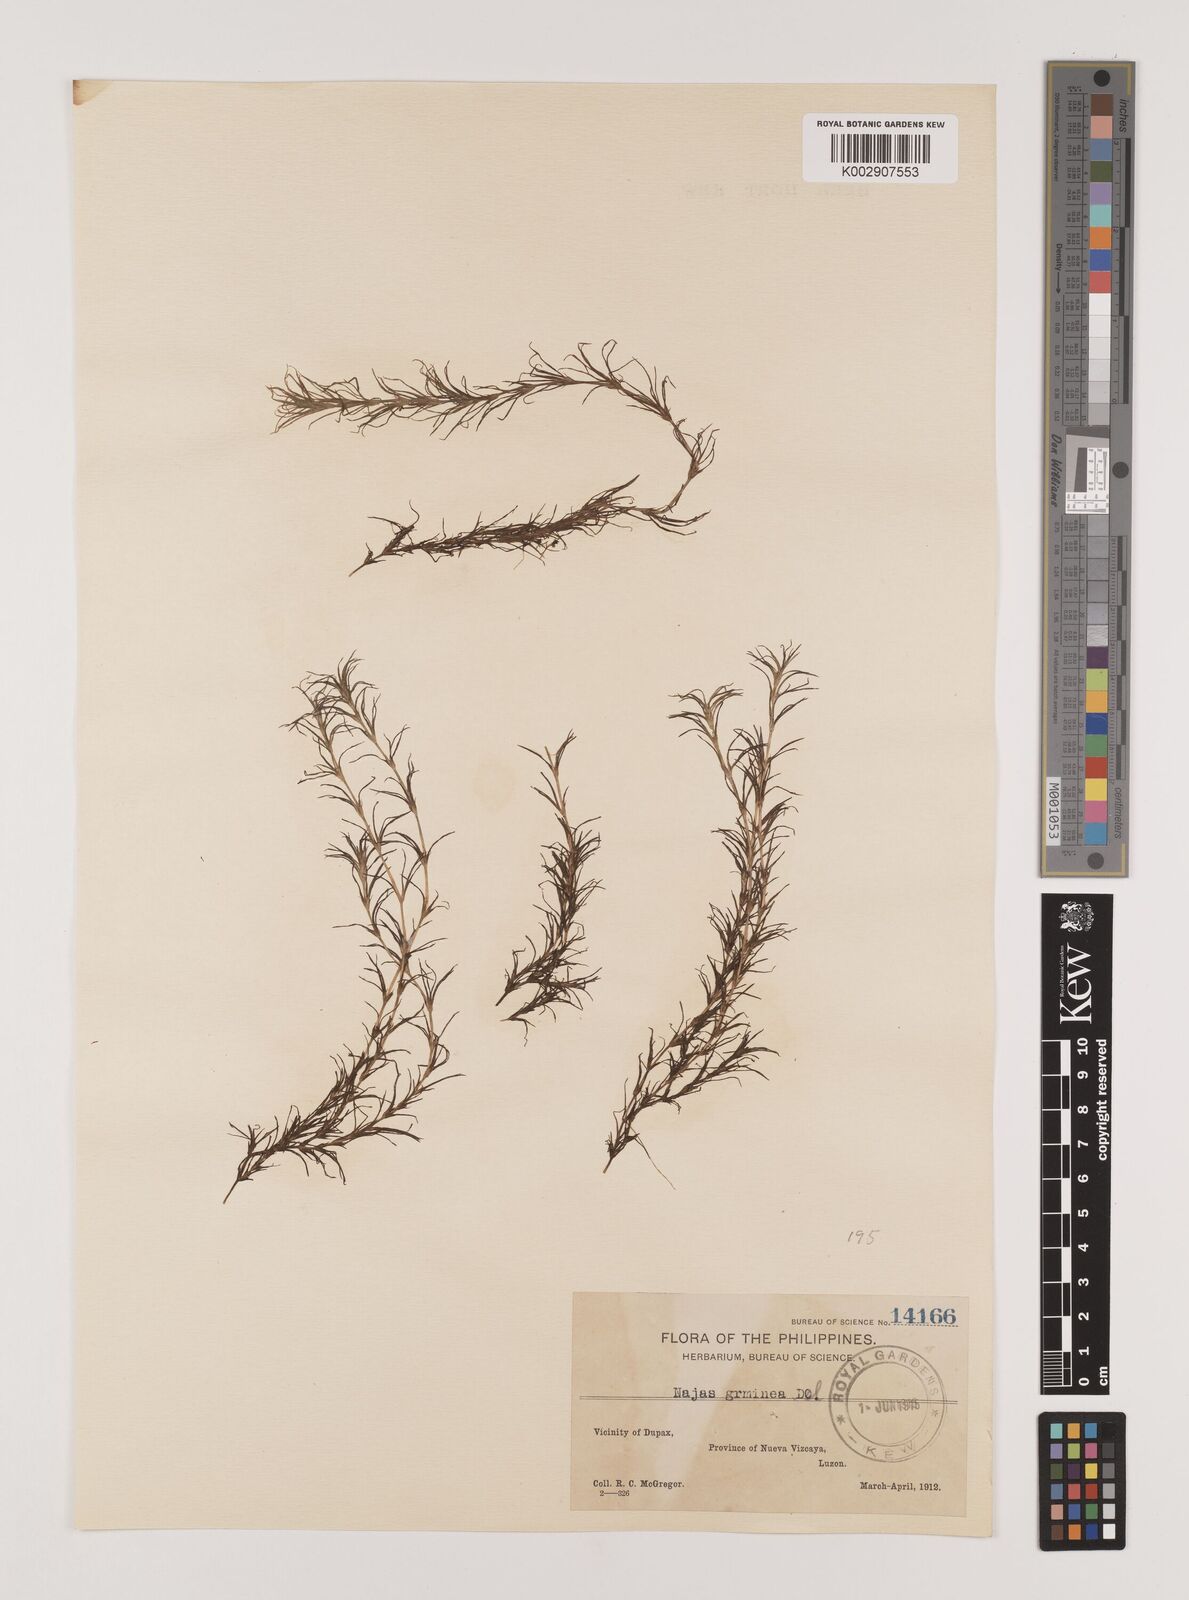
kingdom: Plantae
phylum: Tracheophyta
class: Liliopsida
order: Alismatales
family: Hydrocharitaceae
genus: Najas
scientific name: Najas graminea
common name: Ricefield waternymph
